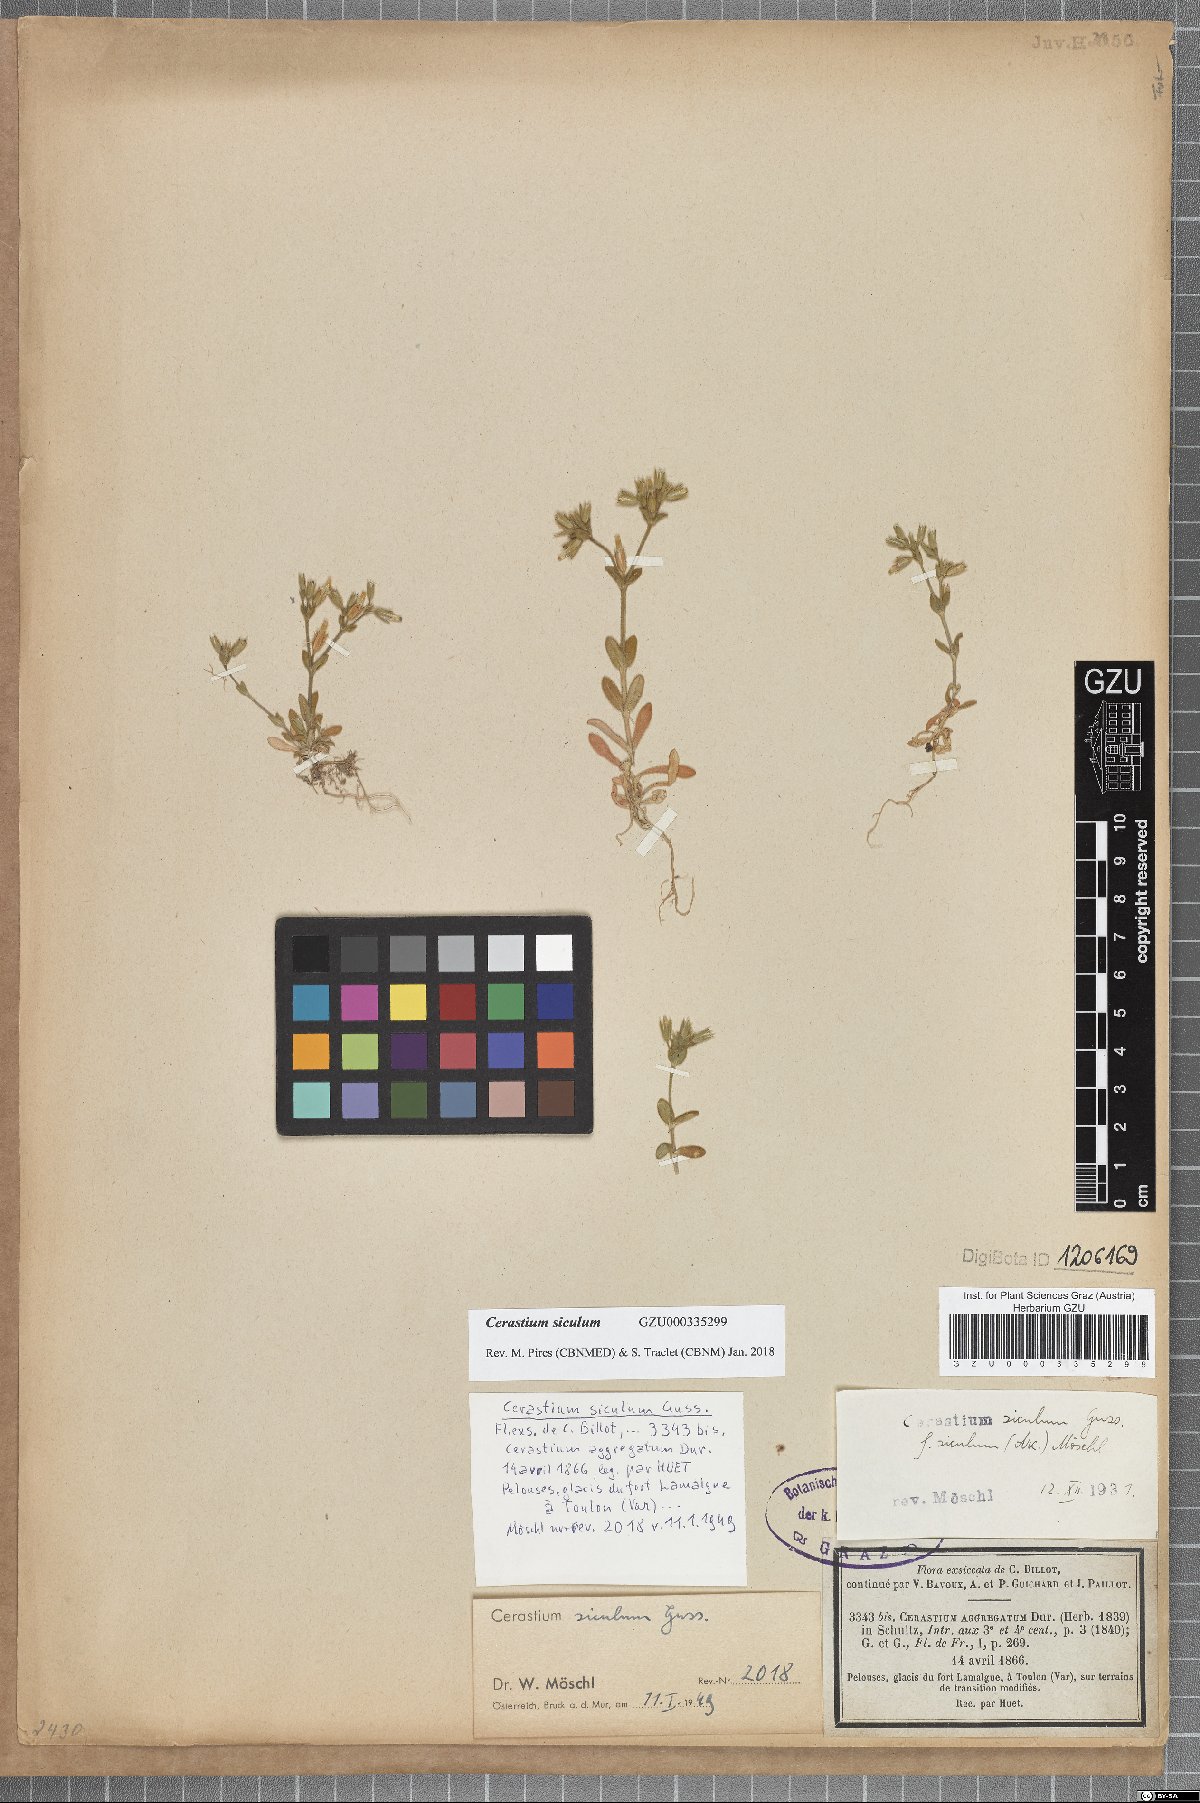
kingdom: Plantae
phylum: Tracheophyta
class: Magnoliopsida
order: Caryophyllales
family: Caryophyllaceae
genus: Cerastium
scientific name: Cerastium siculum
